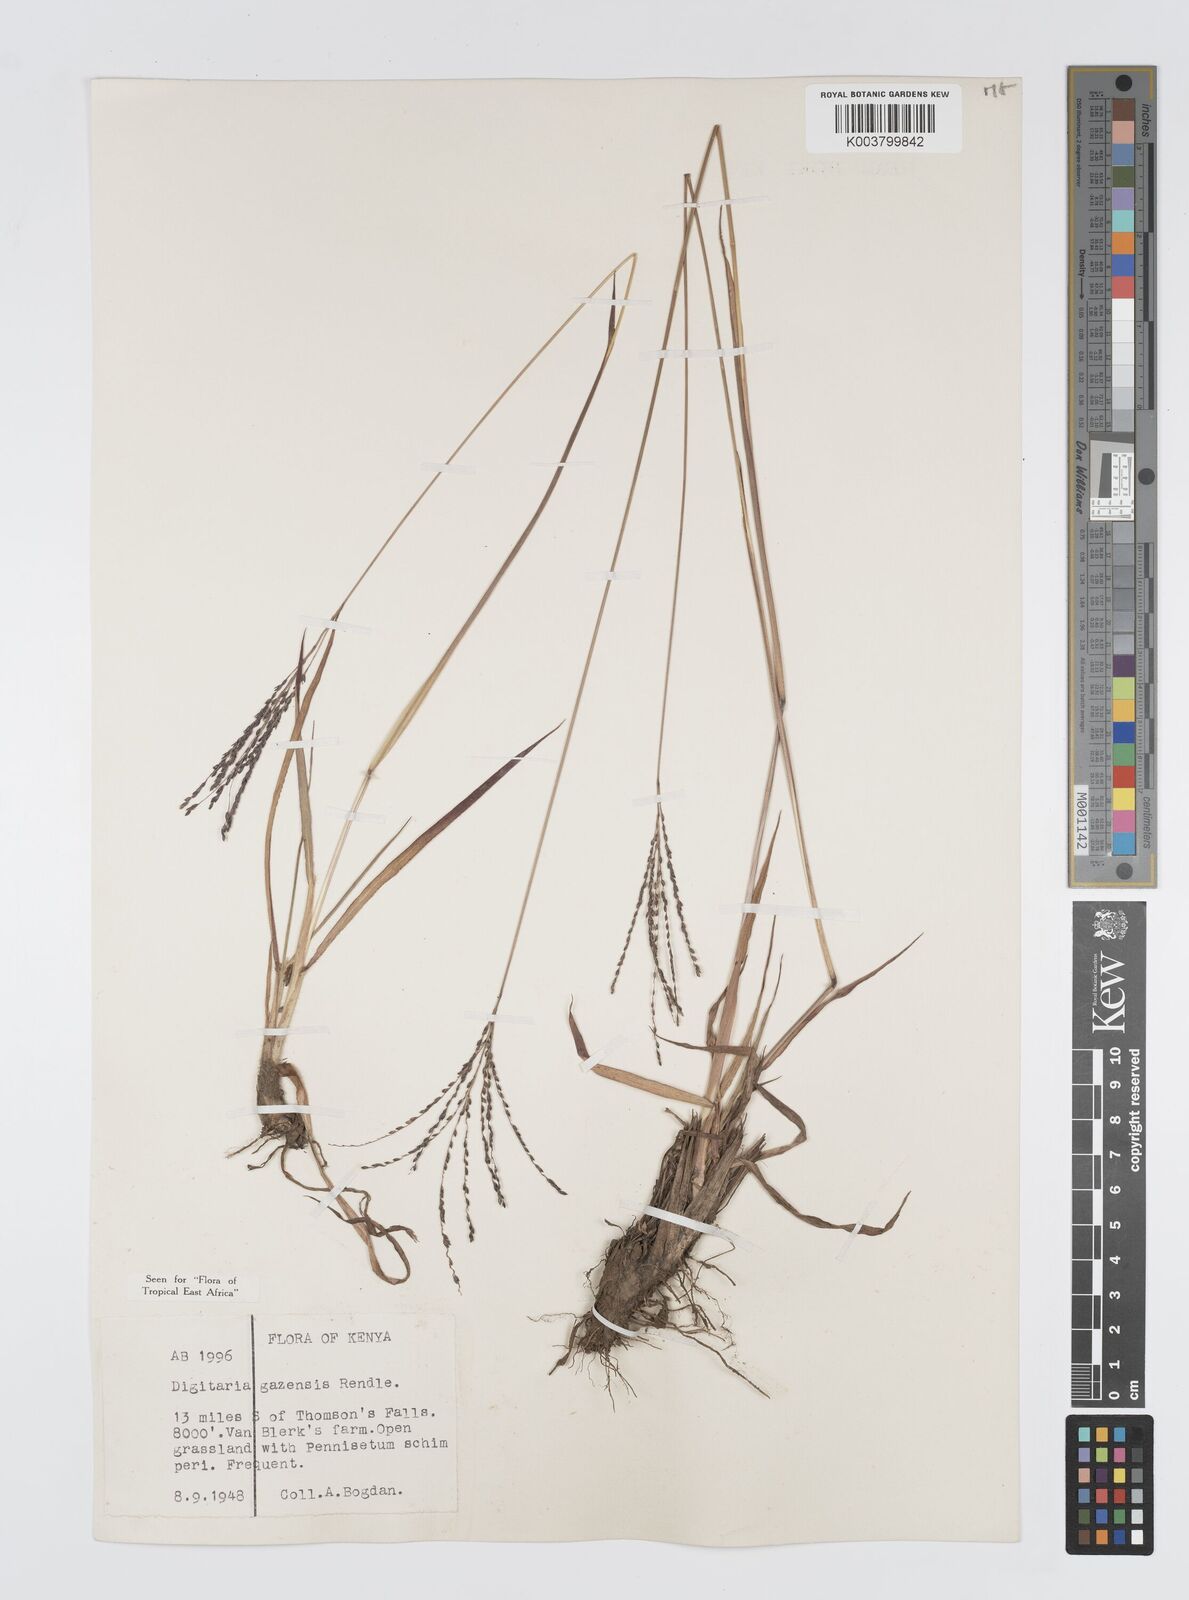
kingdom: Plantae
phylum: Tracheophyta
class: Liliopsida
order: Poales
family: Poaceae
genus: Digitaria
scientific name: Digitaria gazensis
